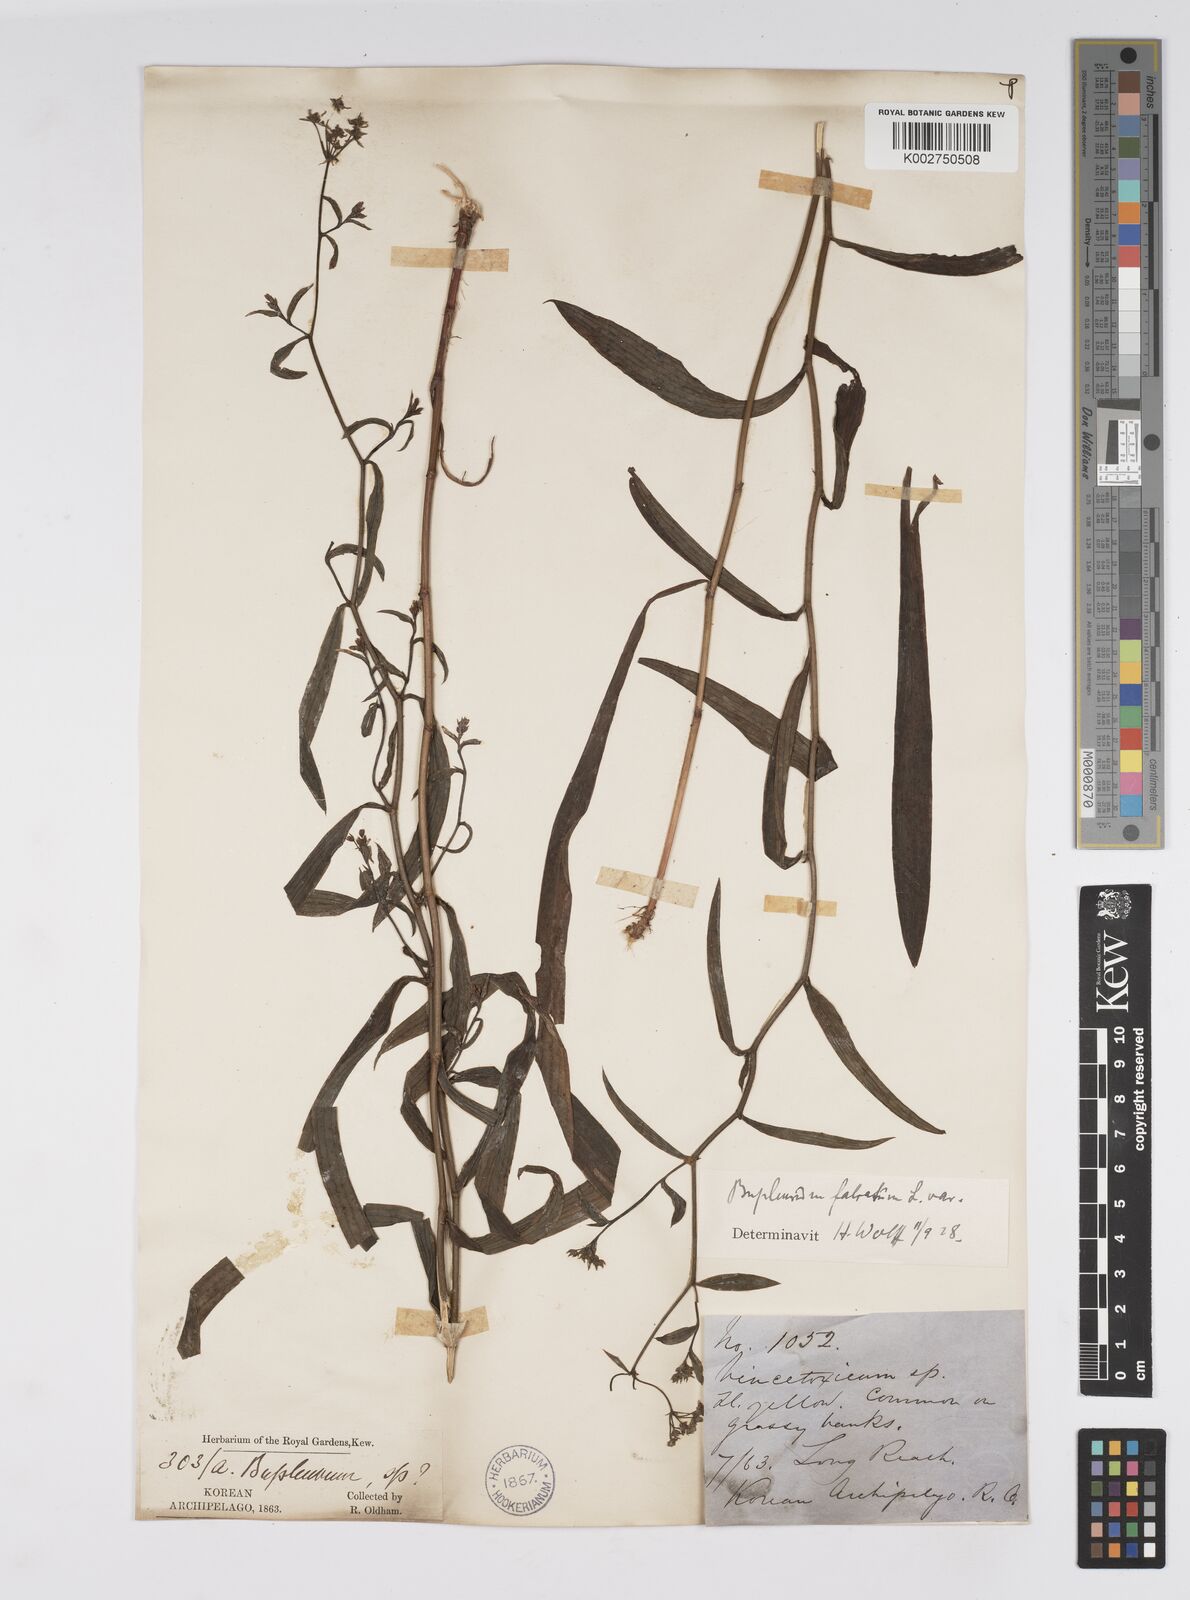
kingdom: Plantae
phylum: Tracheophyta
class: Magnoliopsida
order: Apiales
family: Apiaceae
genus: Bupleurum
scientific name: Bupleurum falcatum
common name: Sickle-leaved hare's-ear
